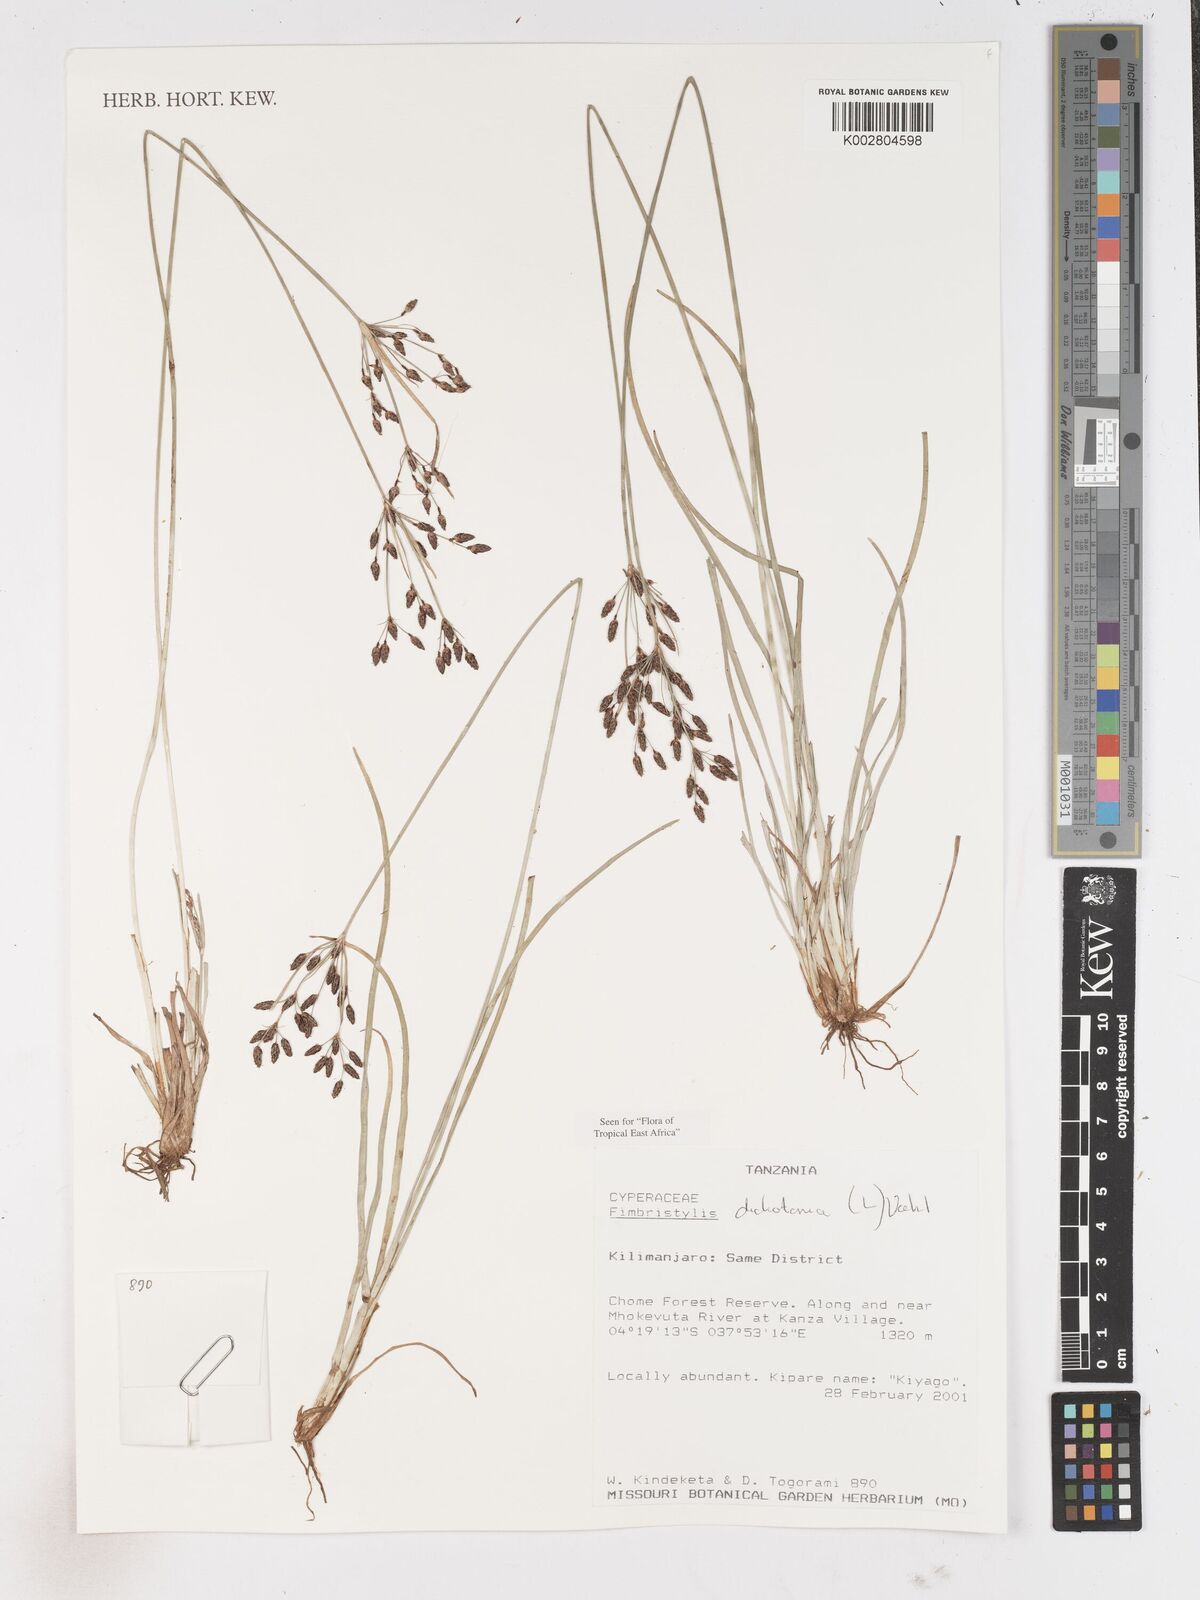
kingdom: Plantae
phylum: Tracheophyta
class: Liliopsida
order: Poales
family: Cyperaceae
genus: Fimbristylis
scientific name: Fimbristylis dichotoma
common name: Forked fimbry
